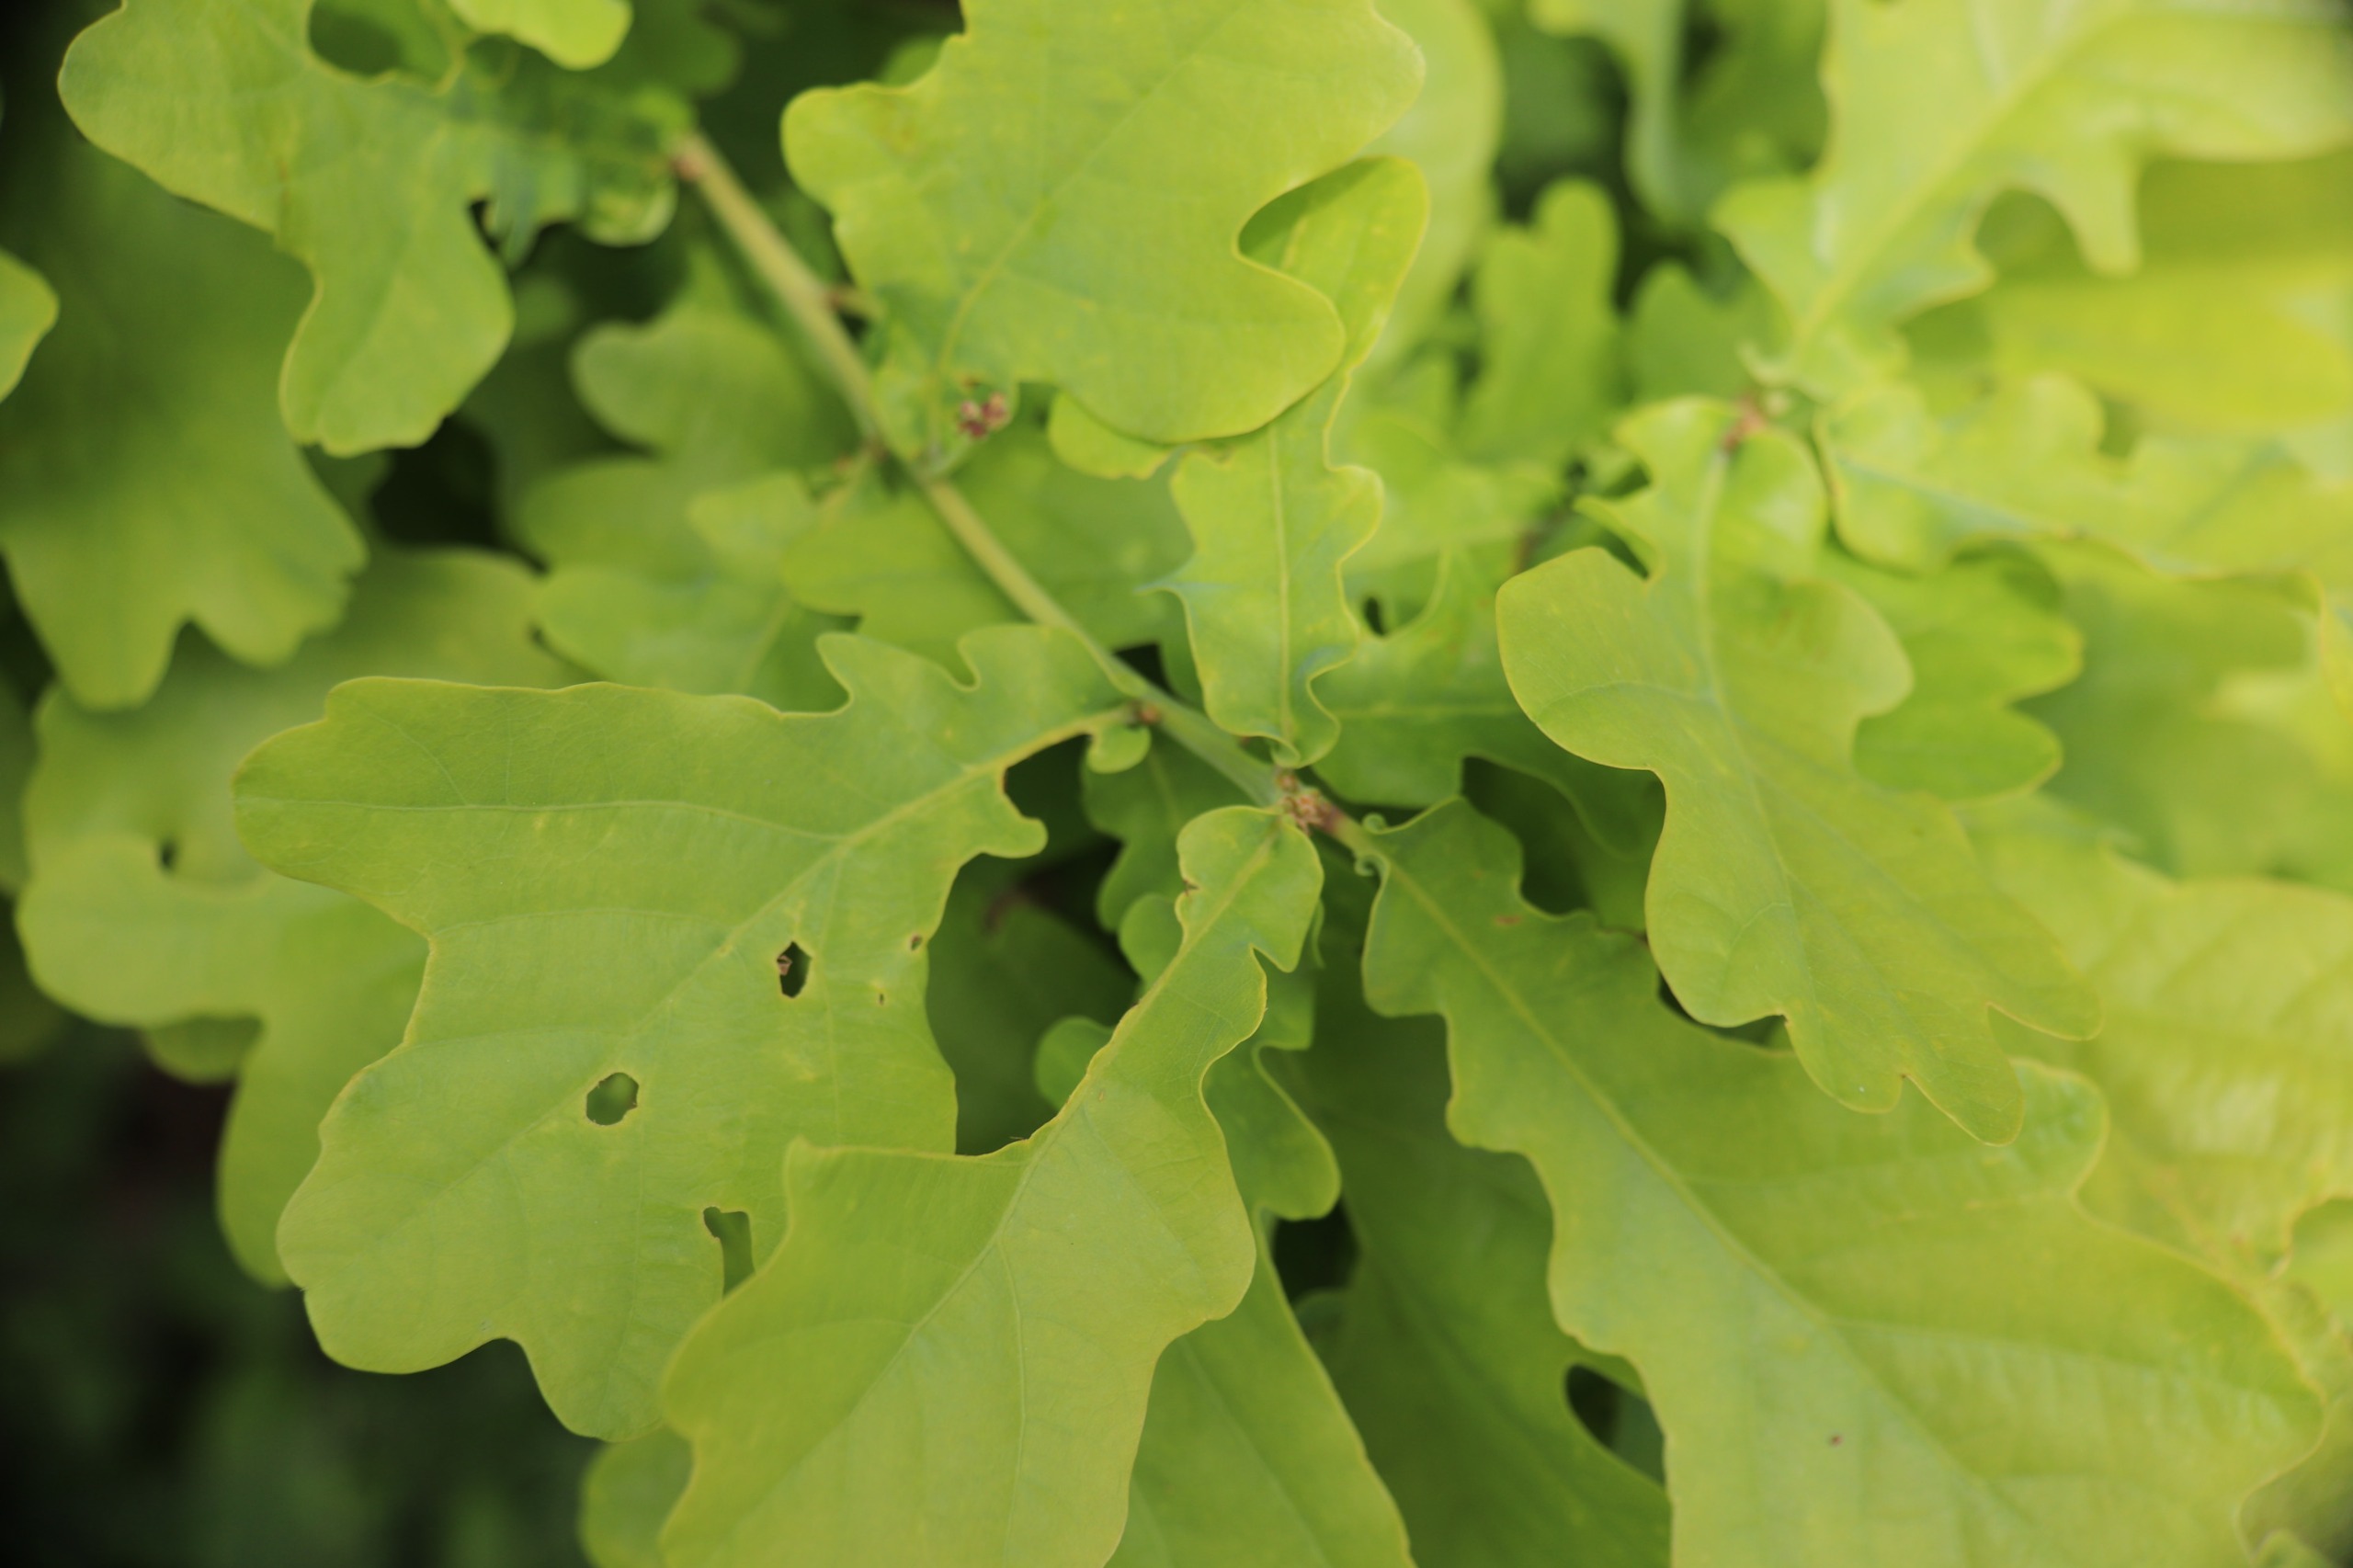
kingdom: Plantae
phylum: Tracheophyta
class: Magnoliopsida
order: Fagales
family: Fagaceae
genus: Quercus
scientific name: Quercus robur
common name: Stilk-eg/almindelig eg
